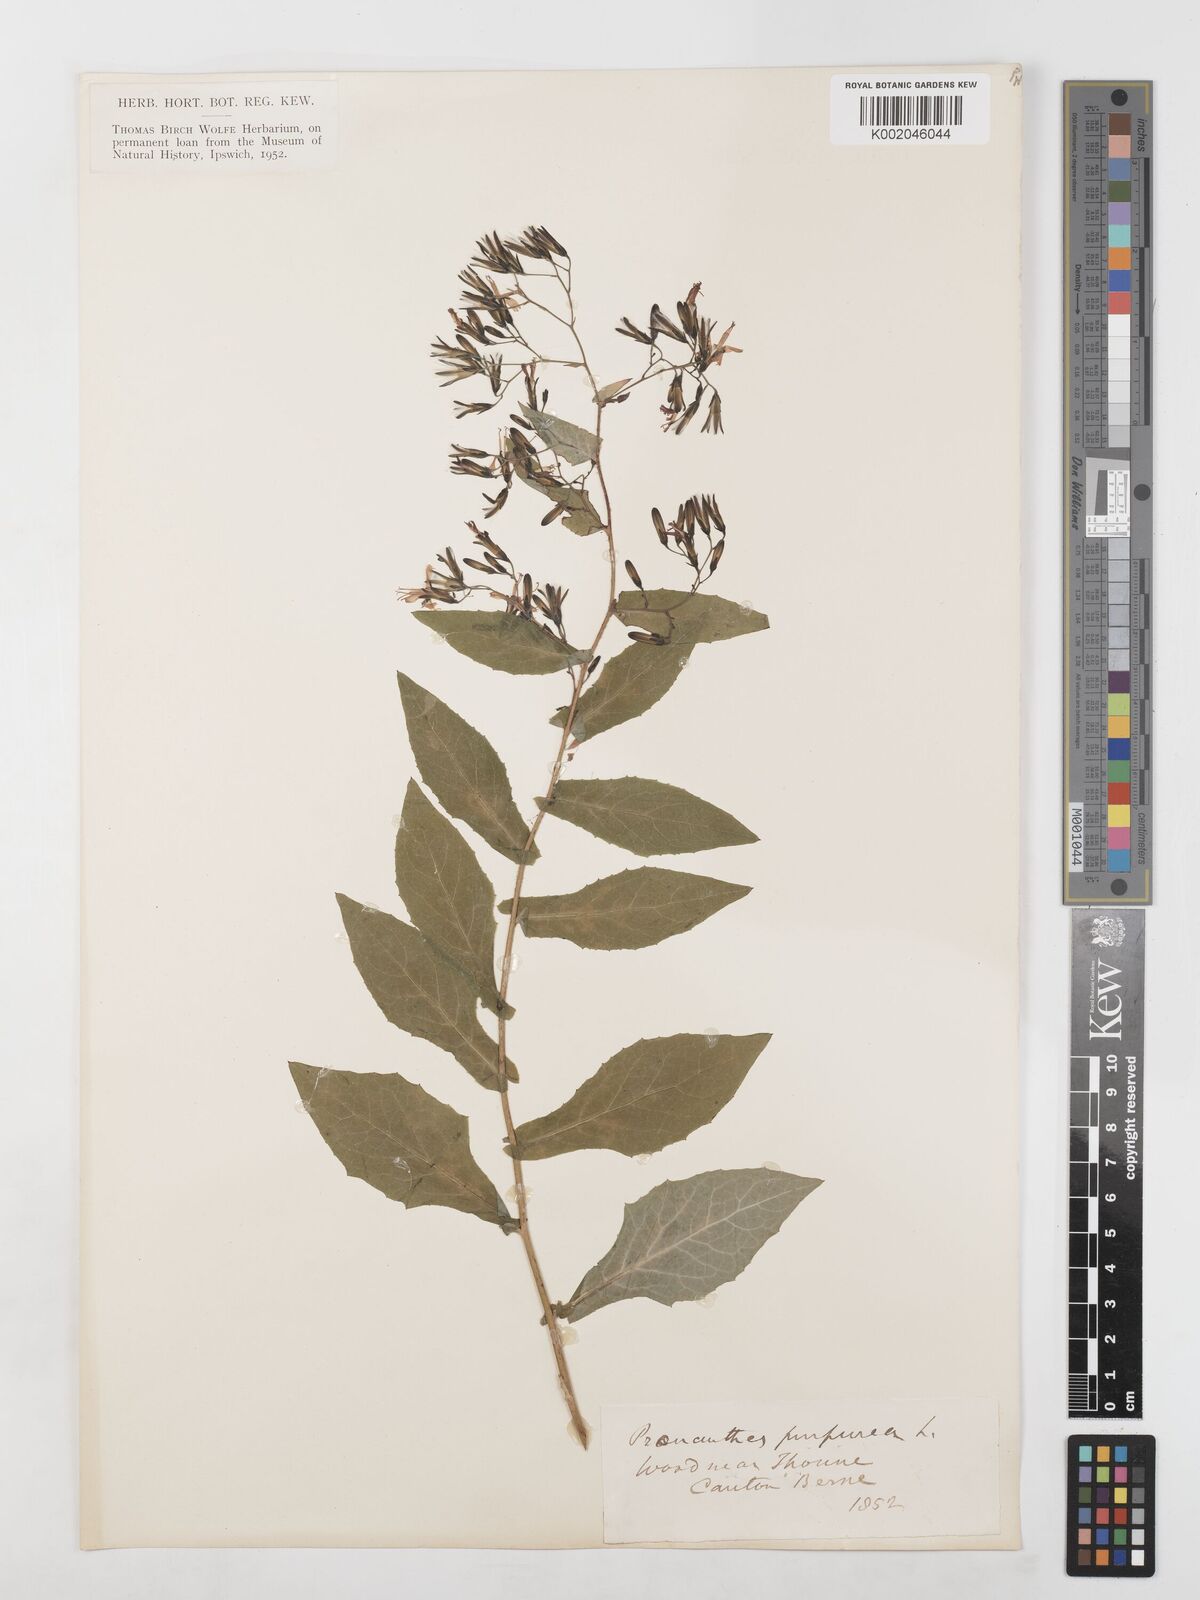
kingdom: Plantae
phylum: Tracheophyta
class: Magnoliopsida
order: Asterales
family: Asteraceae
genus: Prenanthes
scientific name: Prenanthes purpurea
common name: Purple lettuce
